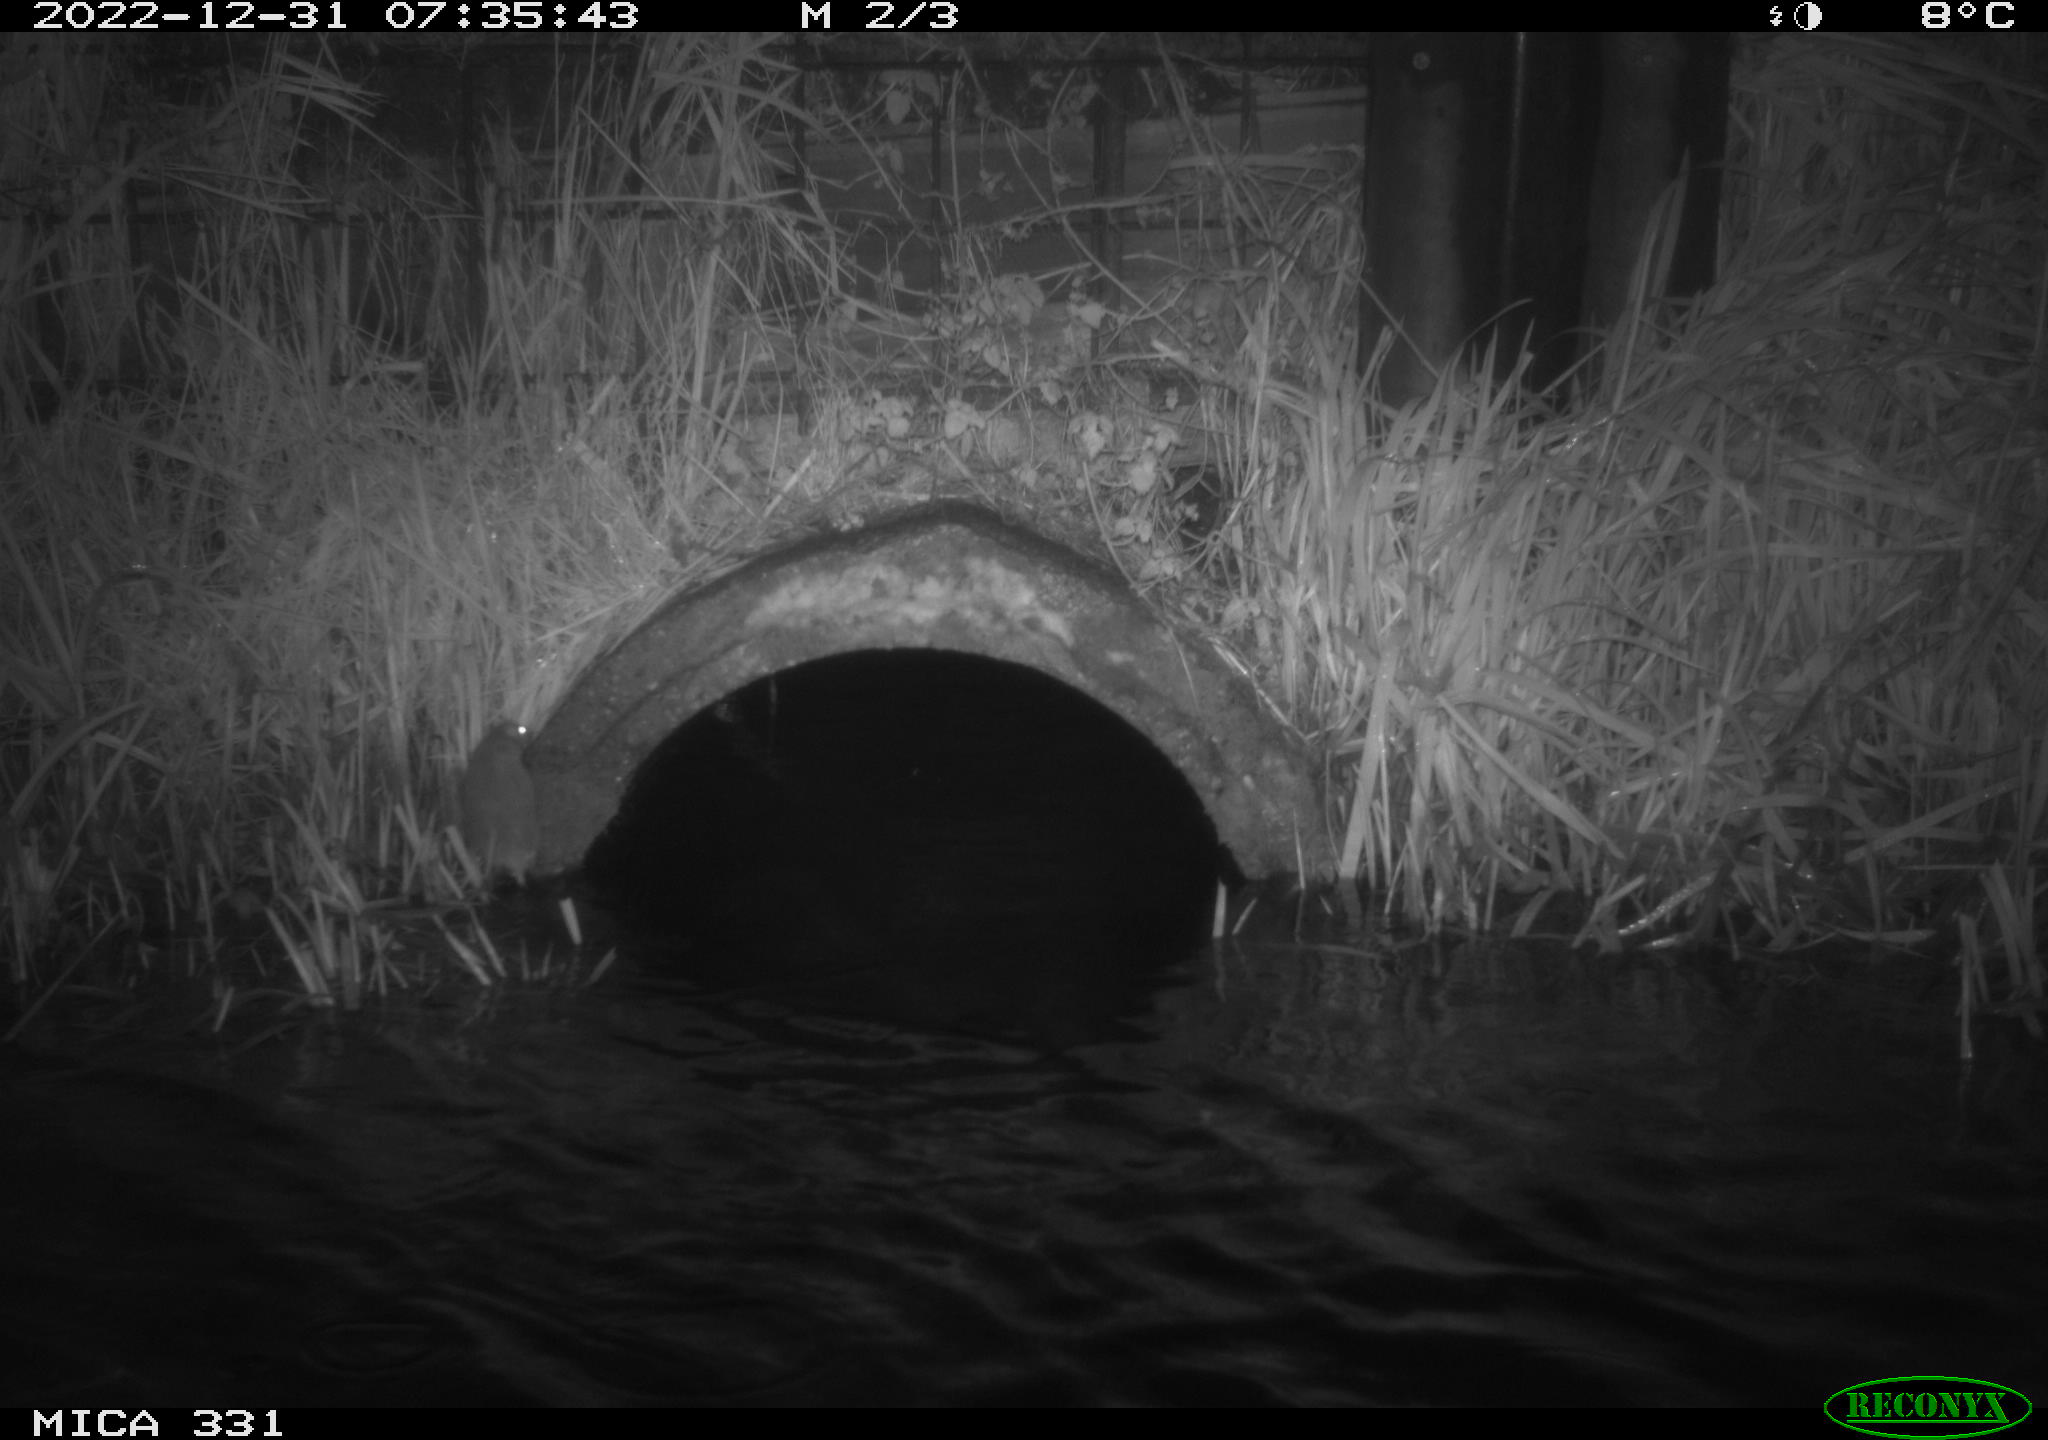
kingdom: Animalia
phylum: Chordata
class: Mammalia
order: Rodentia
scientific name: Rodentia
